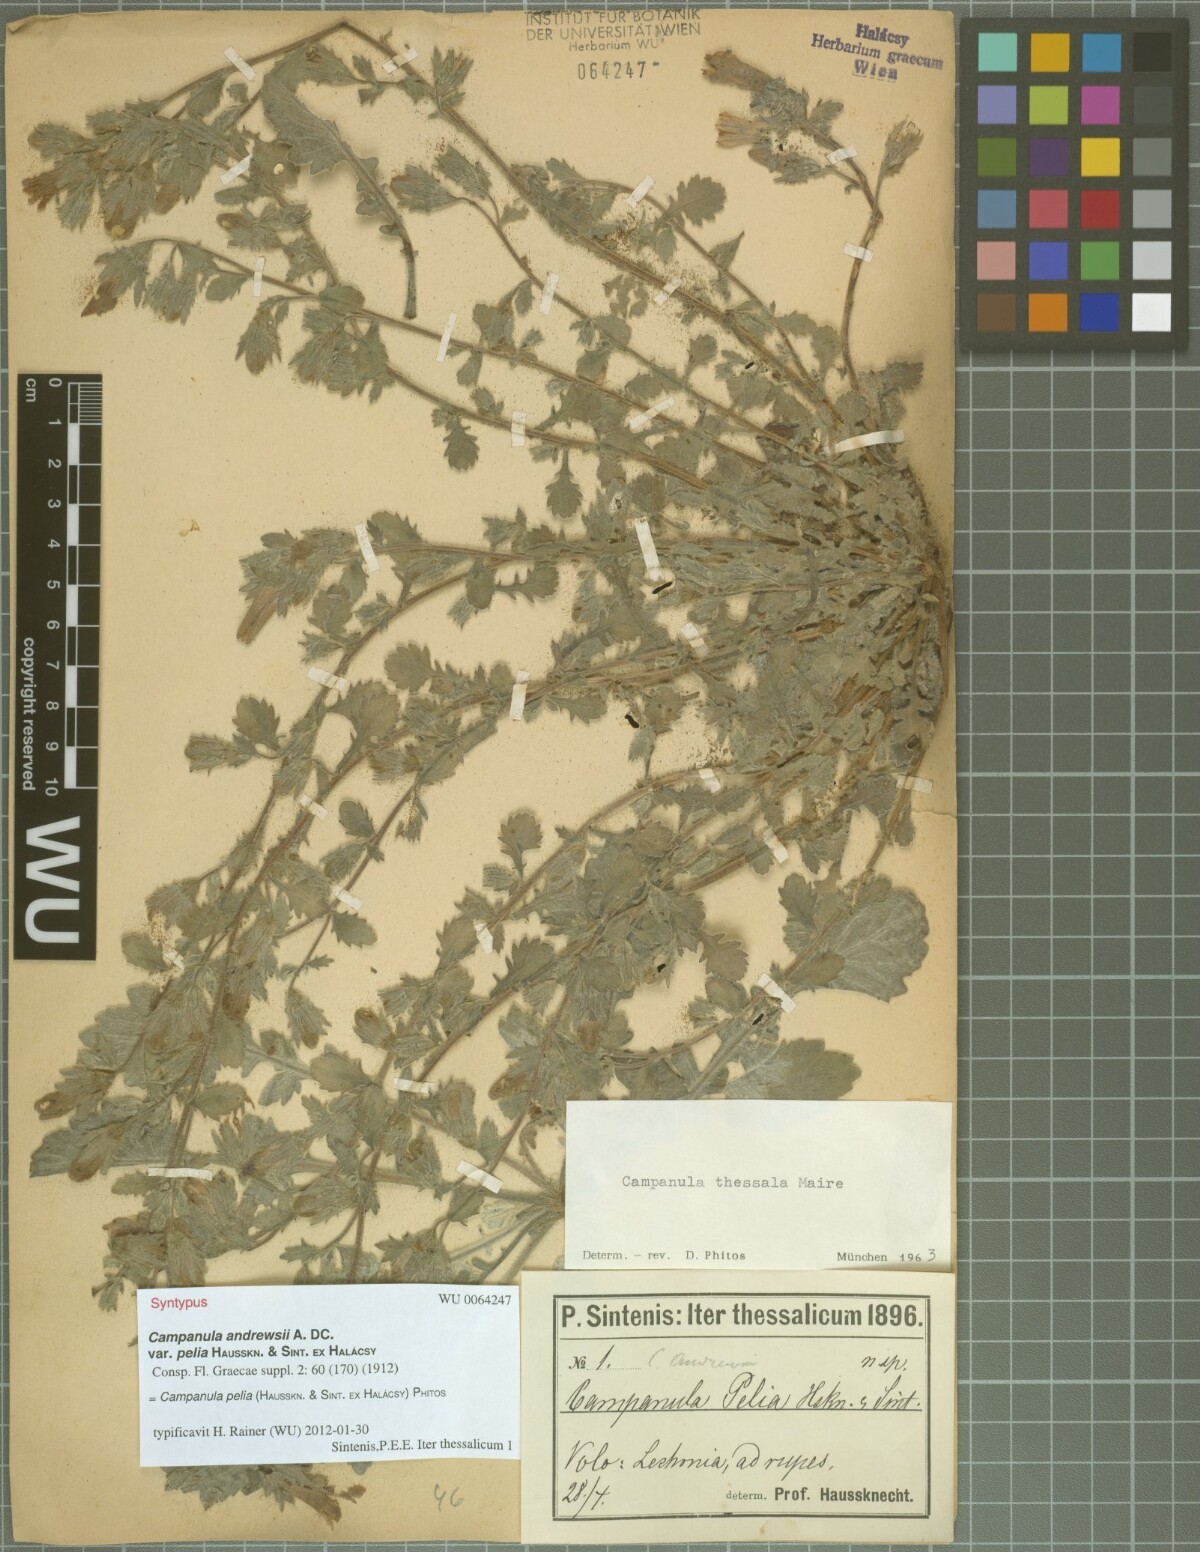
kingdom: Plantae
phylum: Tracheophyta
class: Magnoliopsida
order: Asterales
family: Campanulaceae
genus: Campanula
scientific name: Campanula pelia
